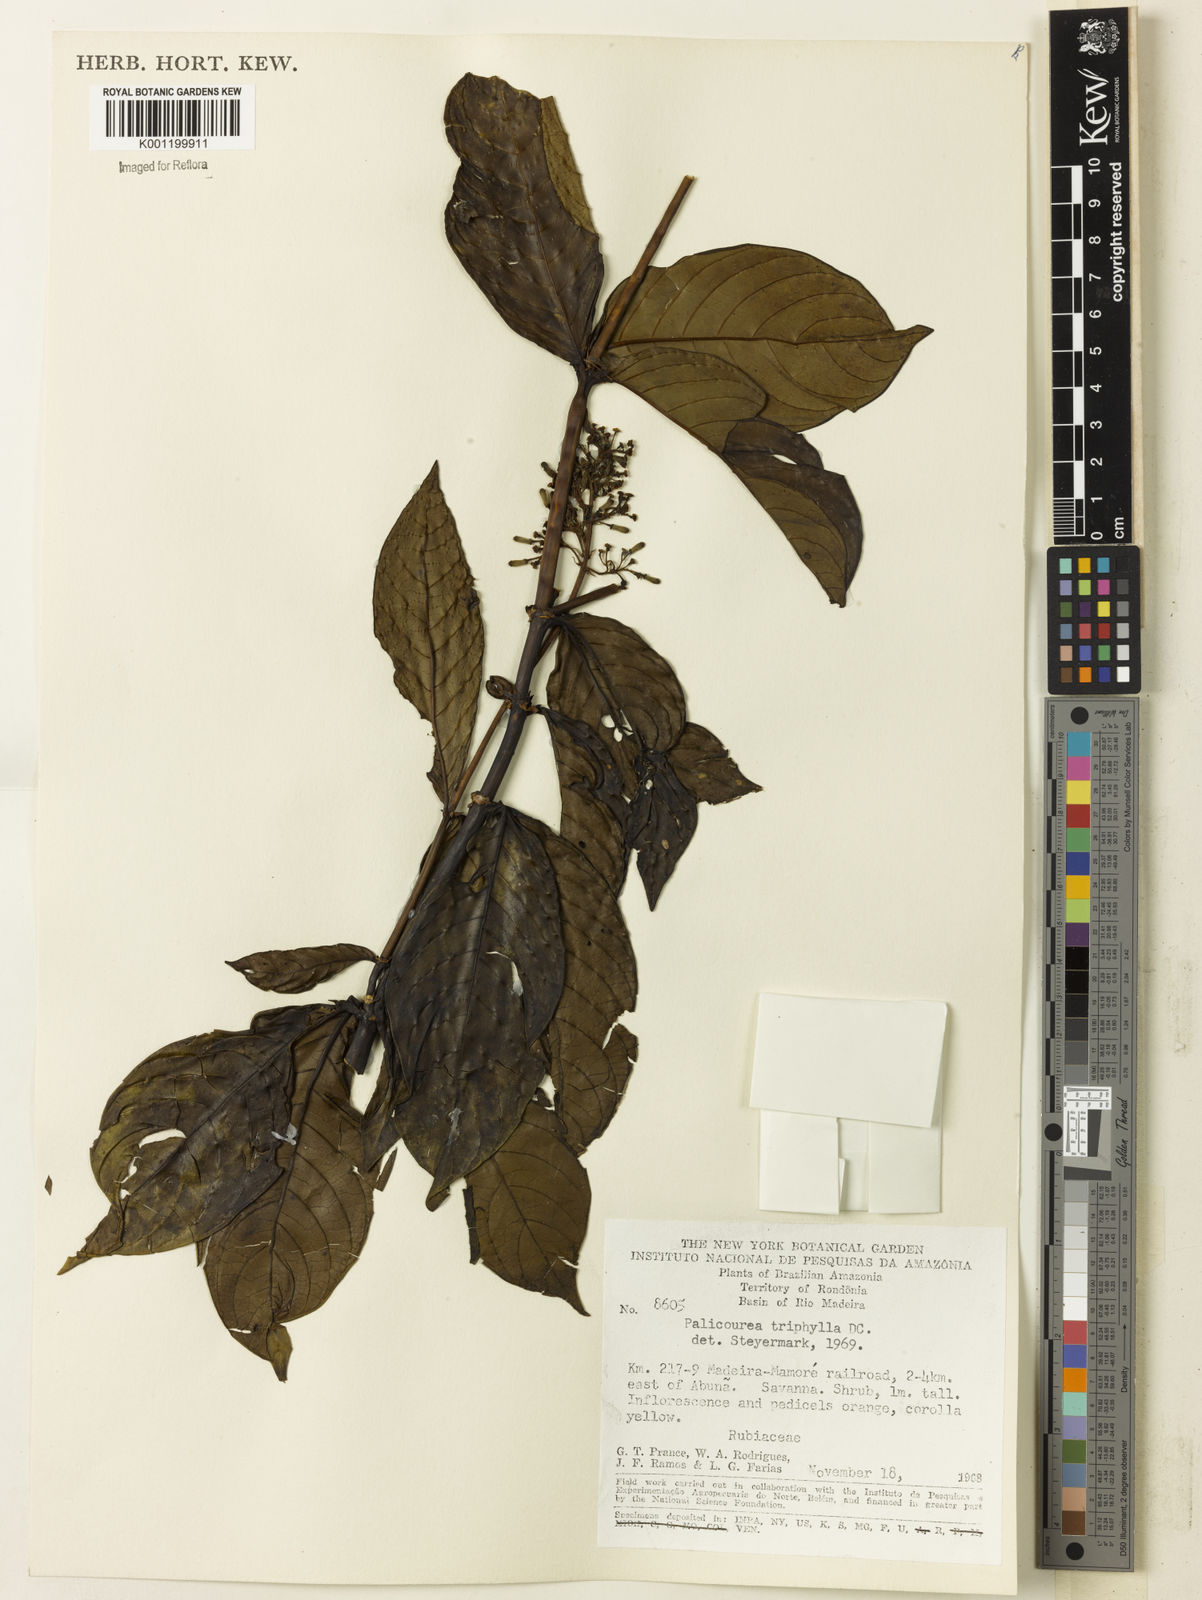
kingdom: Plantae
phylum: Tracheophyta
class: Magnoliopsida
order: Gentianales
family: Rubiaceae
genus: Palicourea
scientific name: Palicourea triphylla
